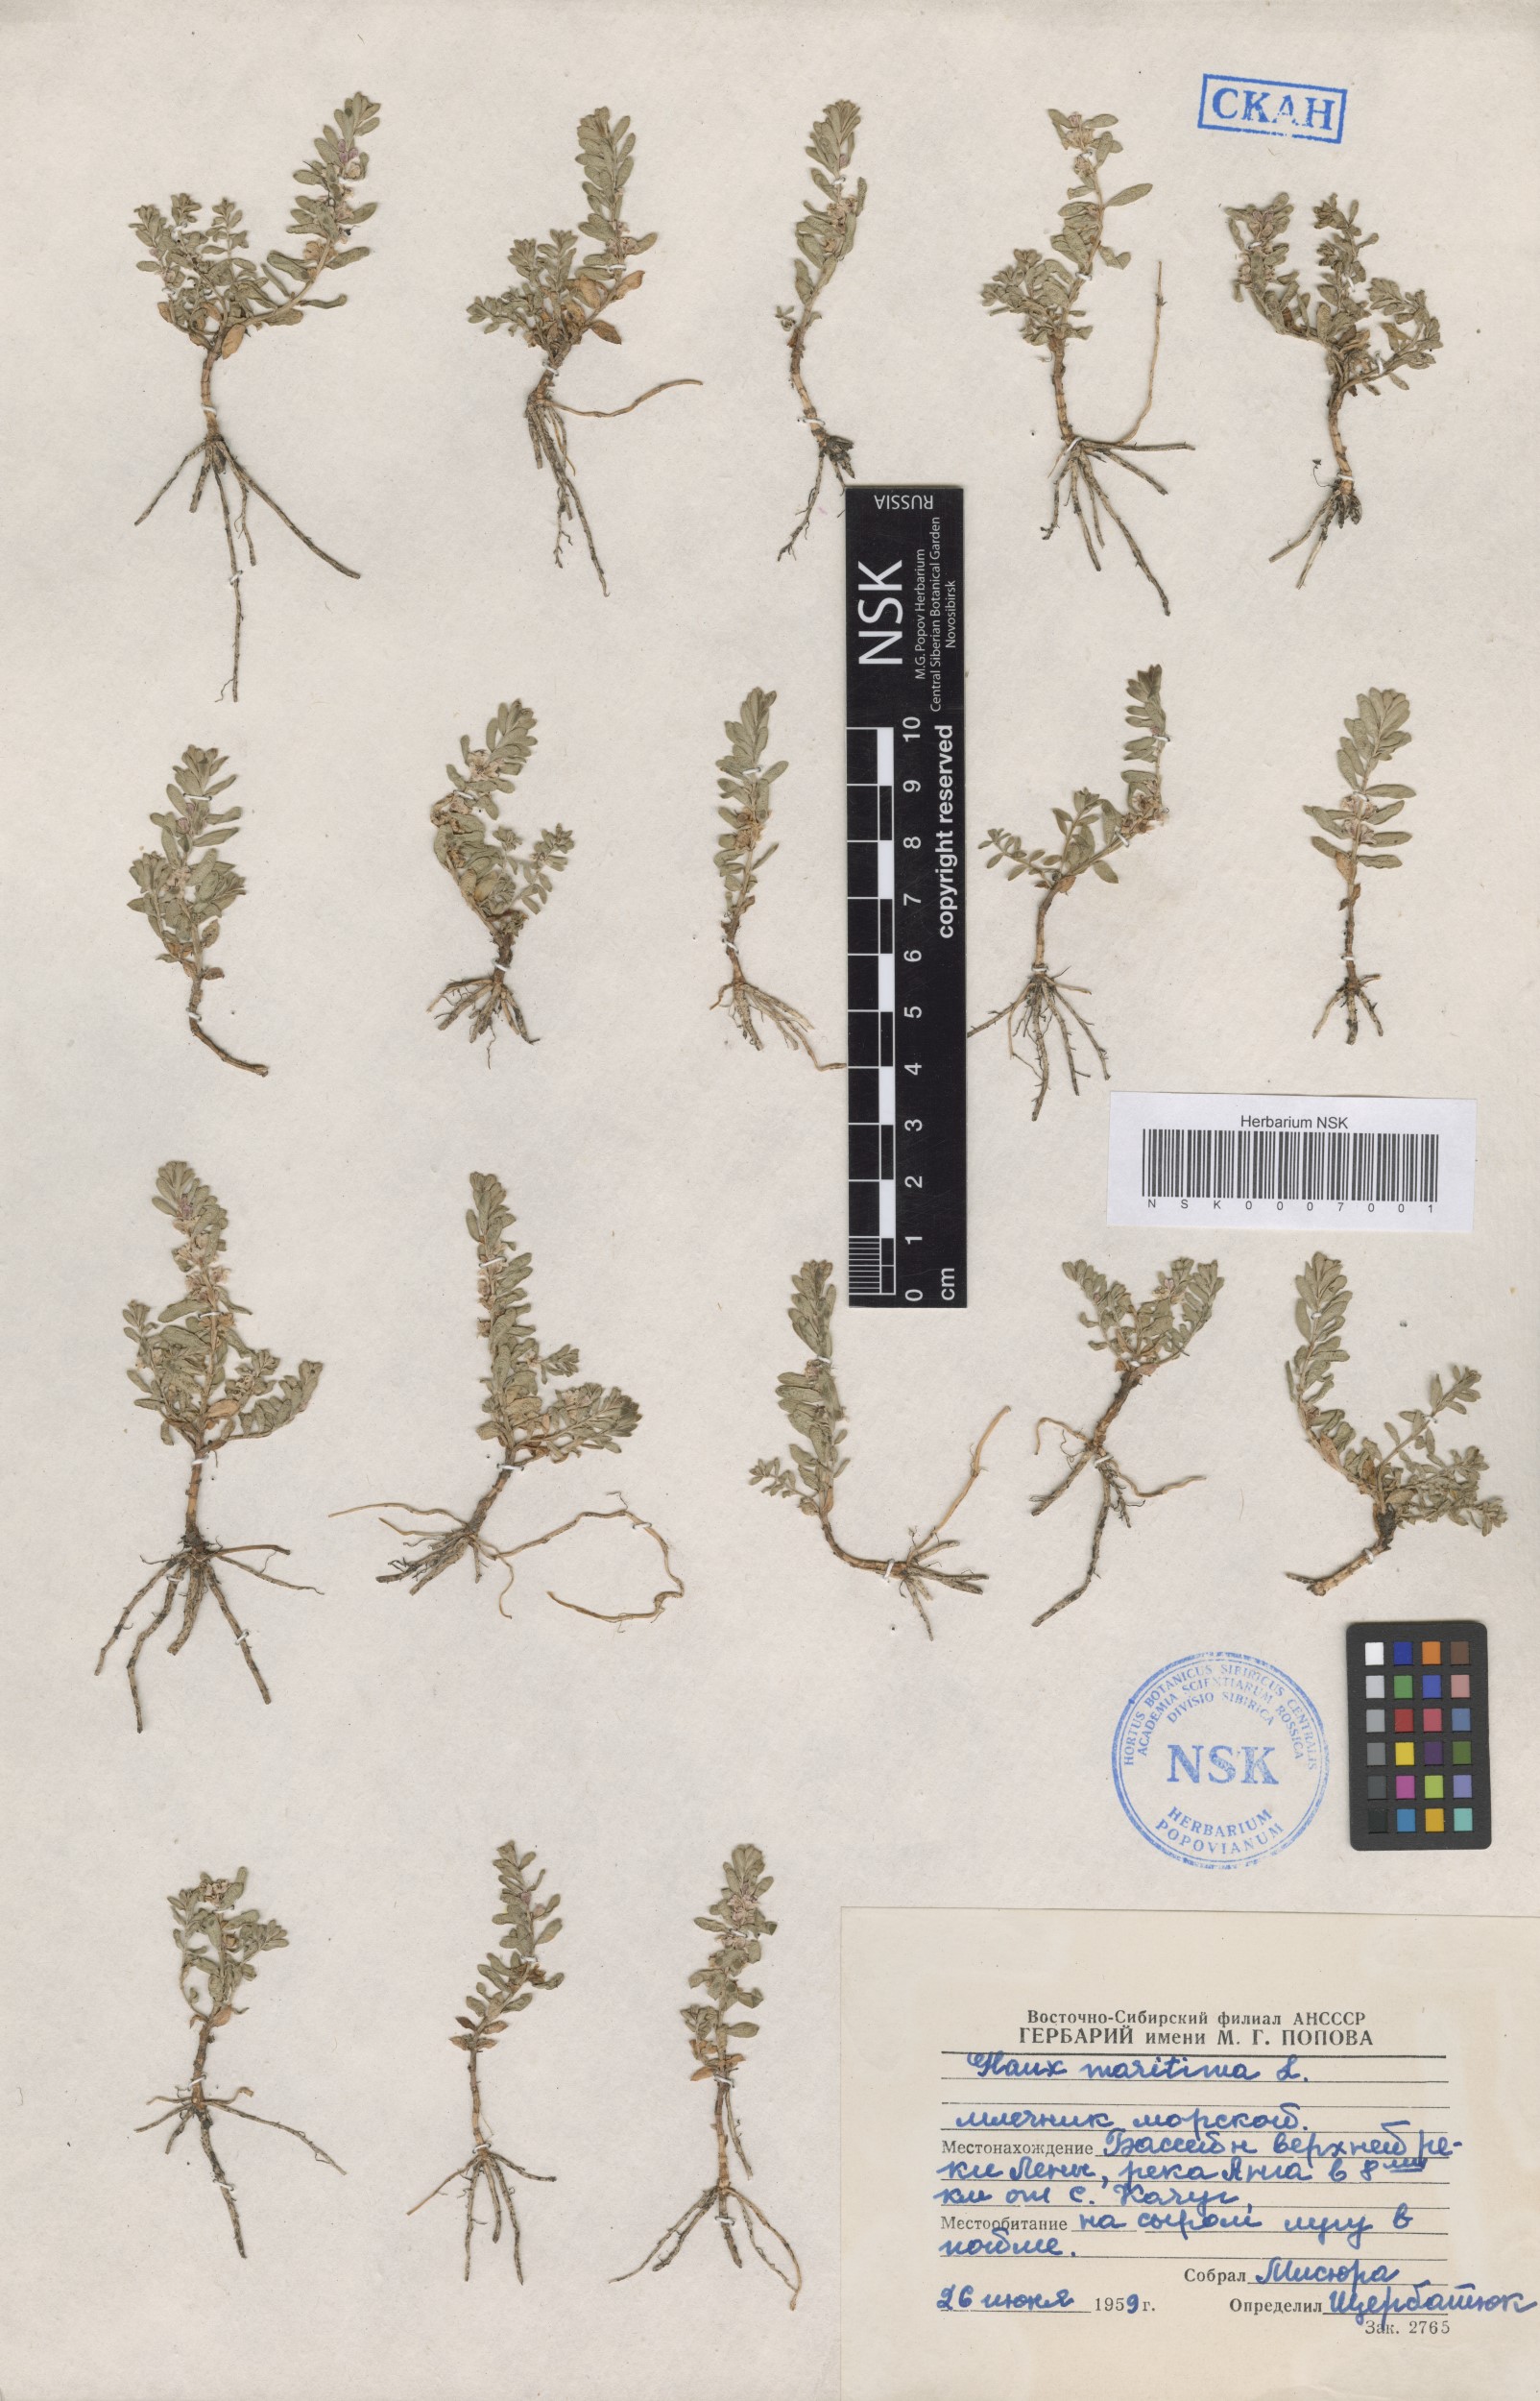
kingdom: Plantae
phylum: Tracheophyta
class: Magnoliopsida
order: Ericales
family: Primulaceae
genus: Lysimachia
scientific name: Lysimachia maritima
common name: Sea milkwort
